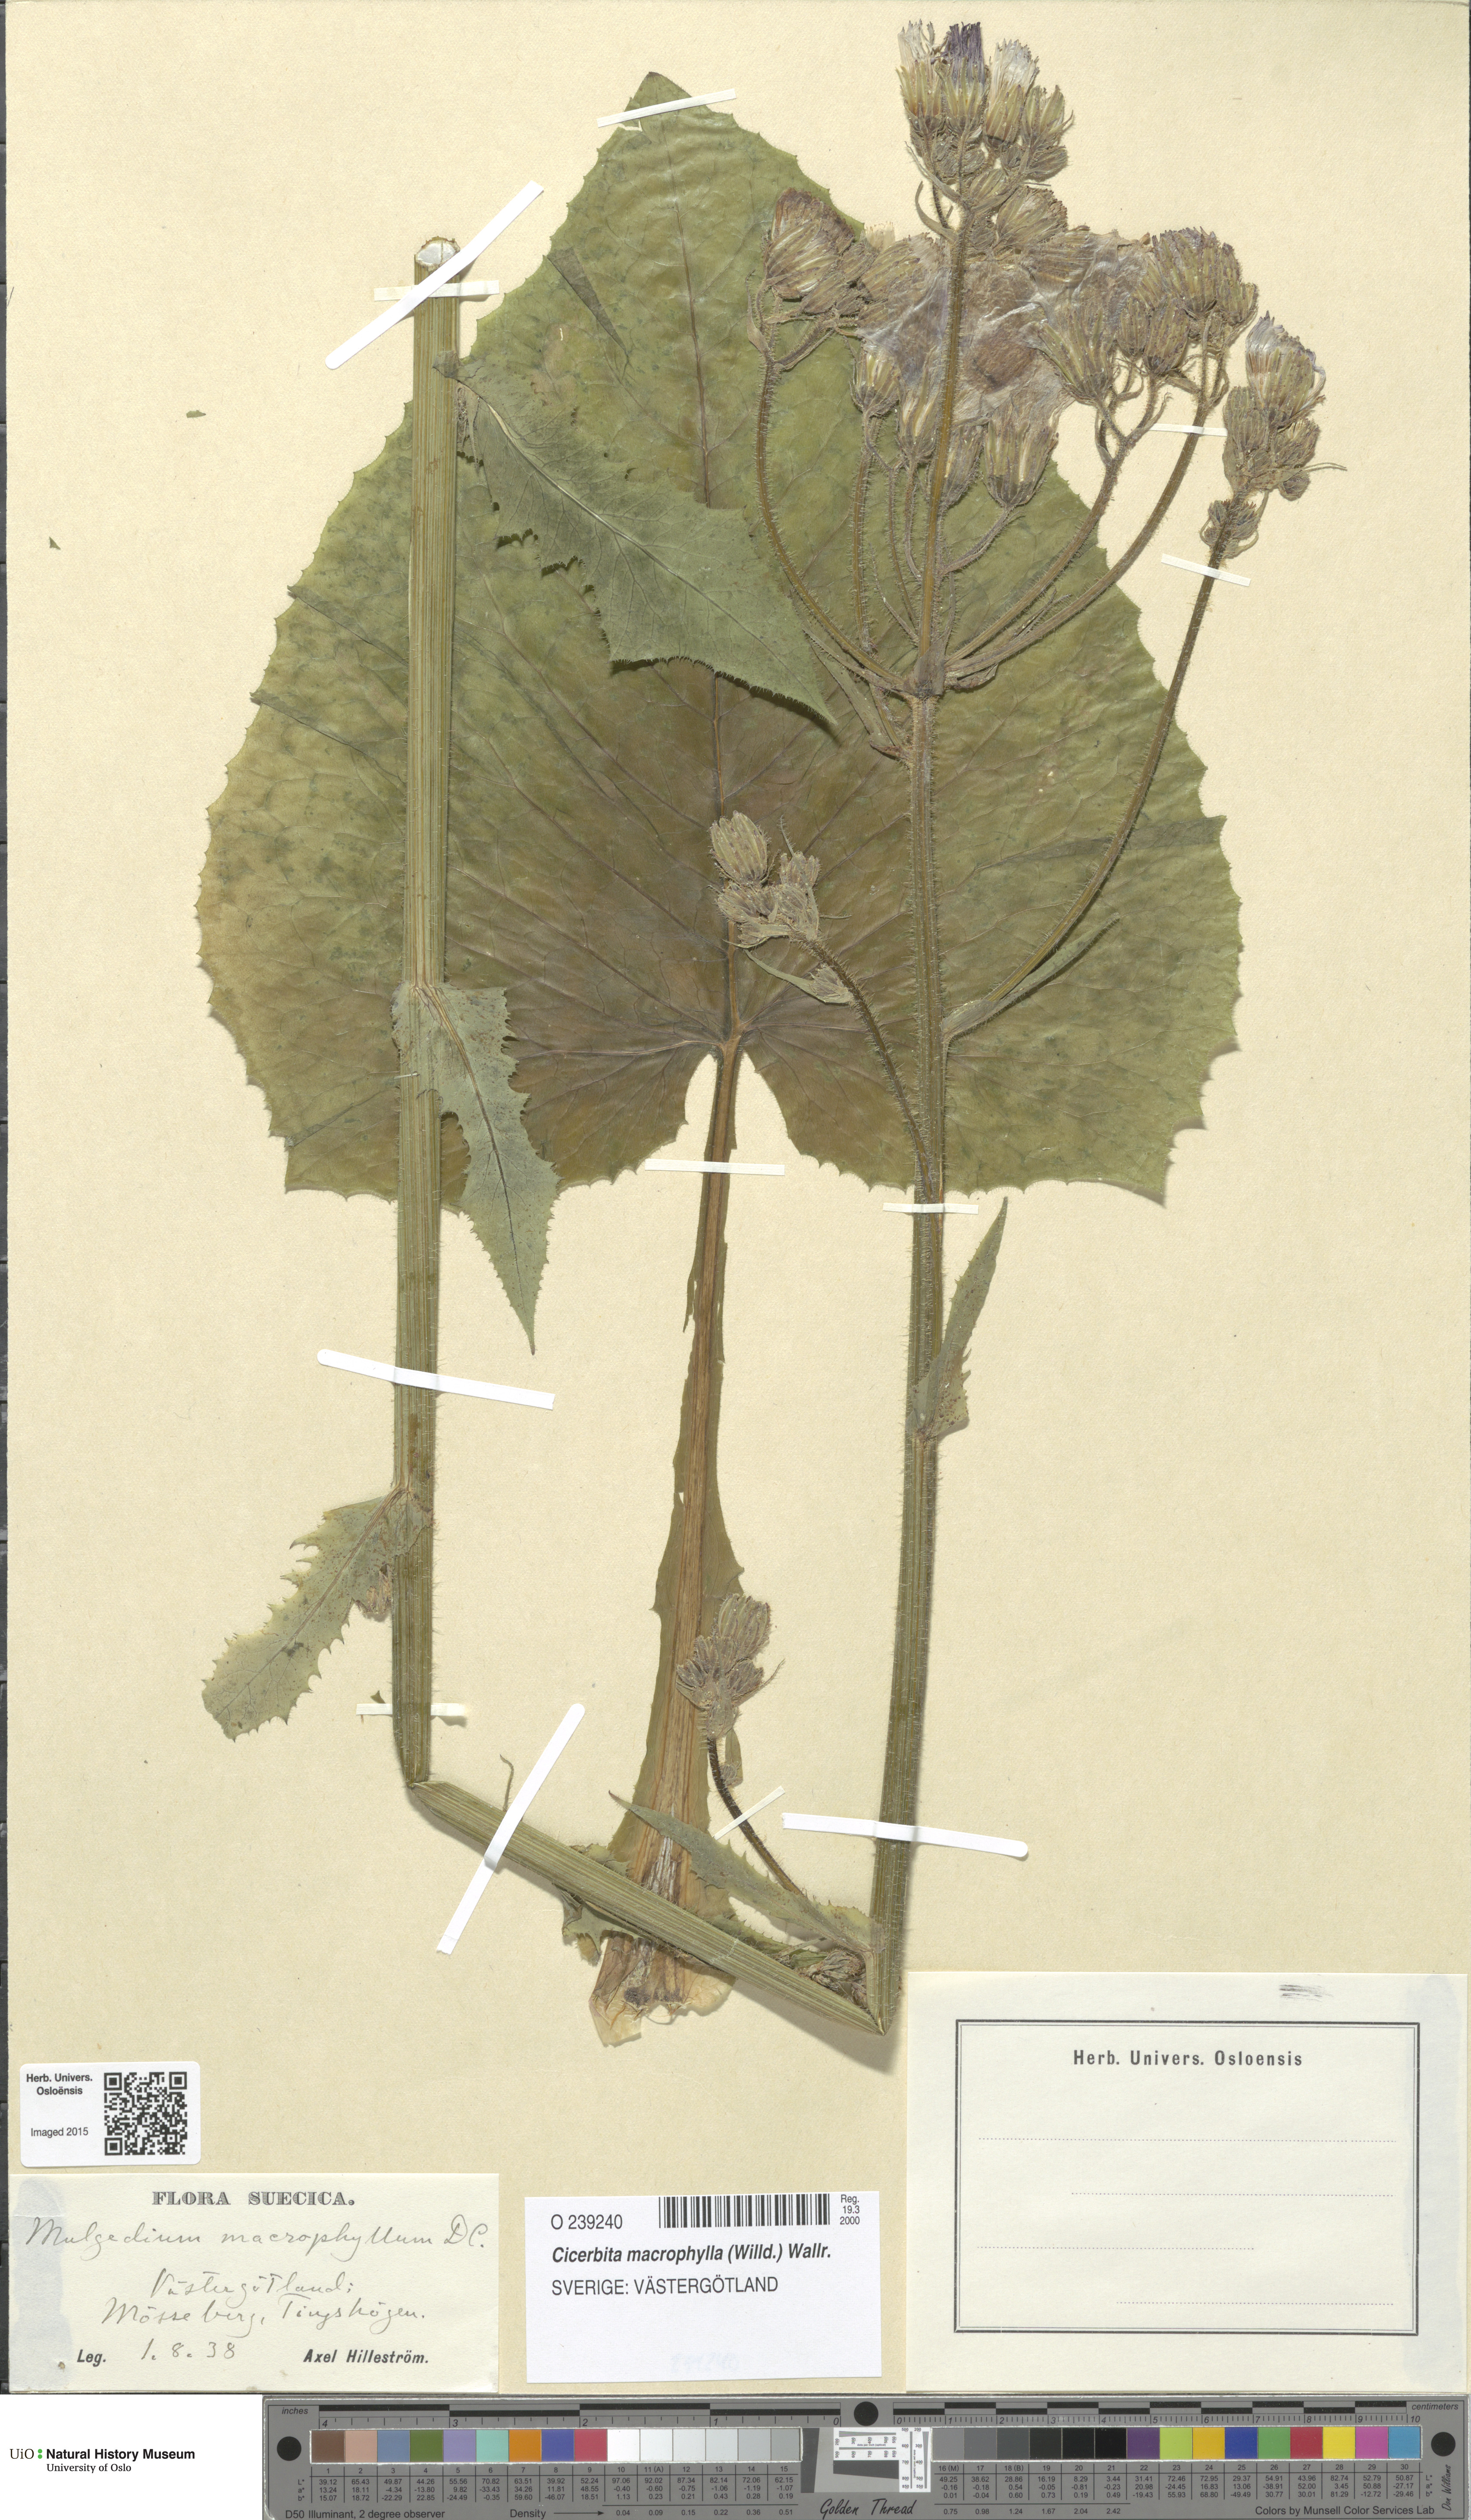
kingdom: Plantae
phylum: Tracheophyta
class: Magnoliopsida
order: Asterales
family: Asteraceae
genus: Lactuca
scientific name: Lactuca macrophylla
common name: Common blue-sow-thistle
